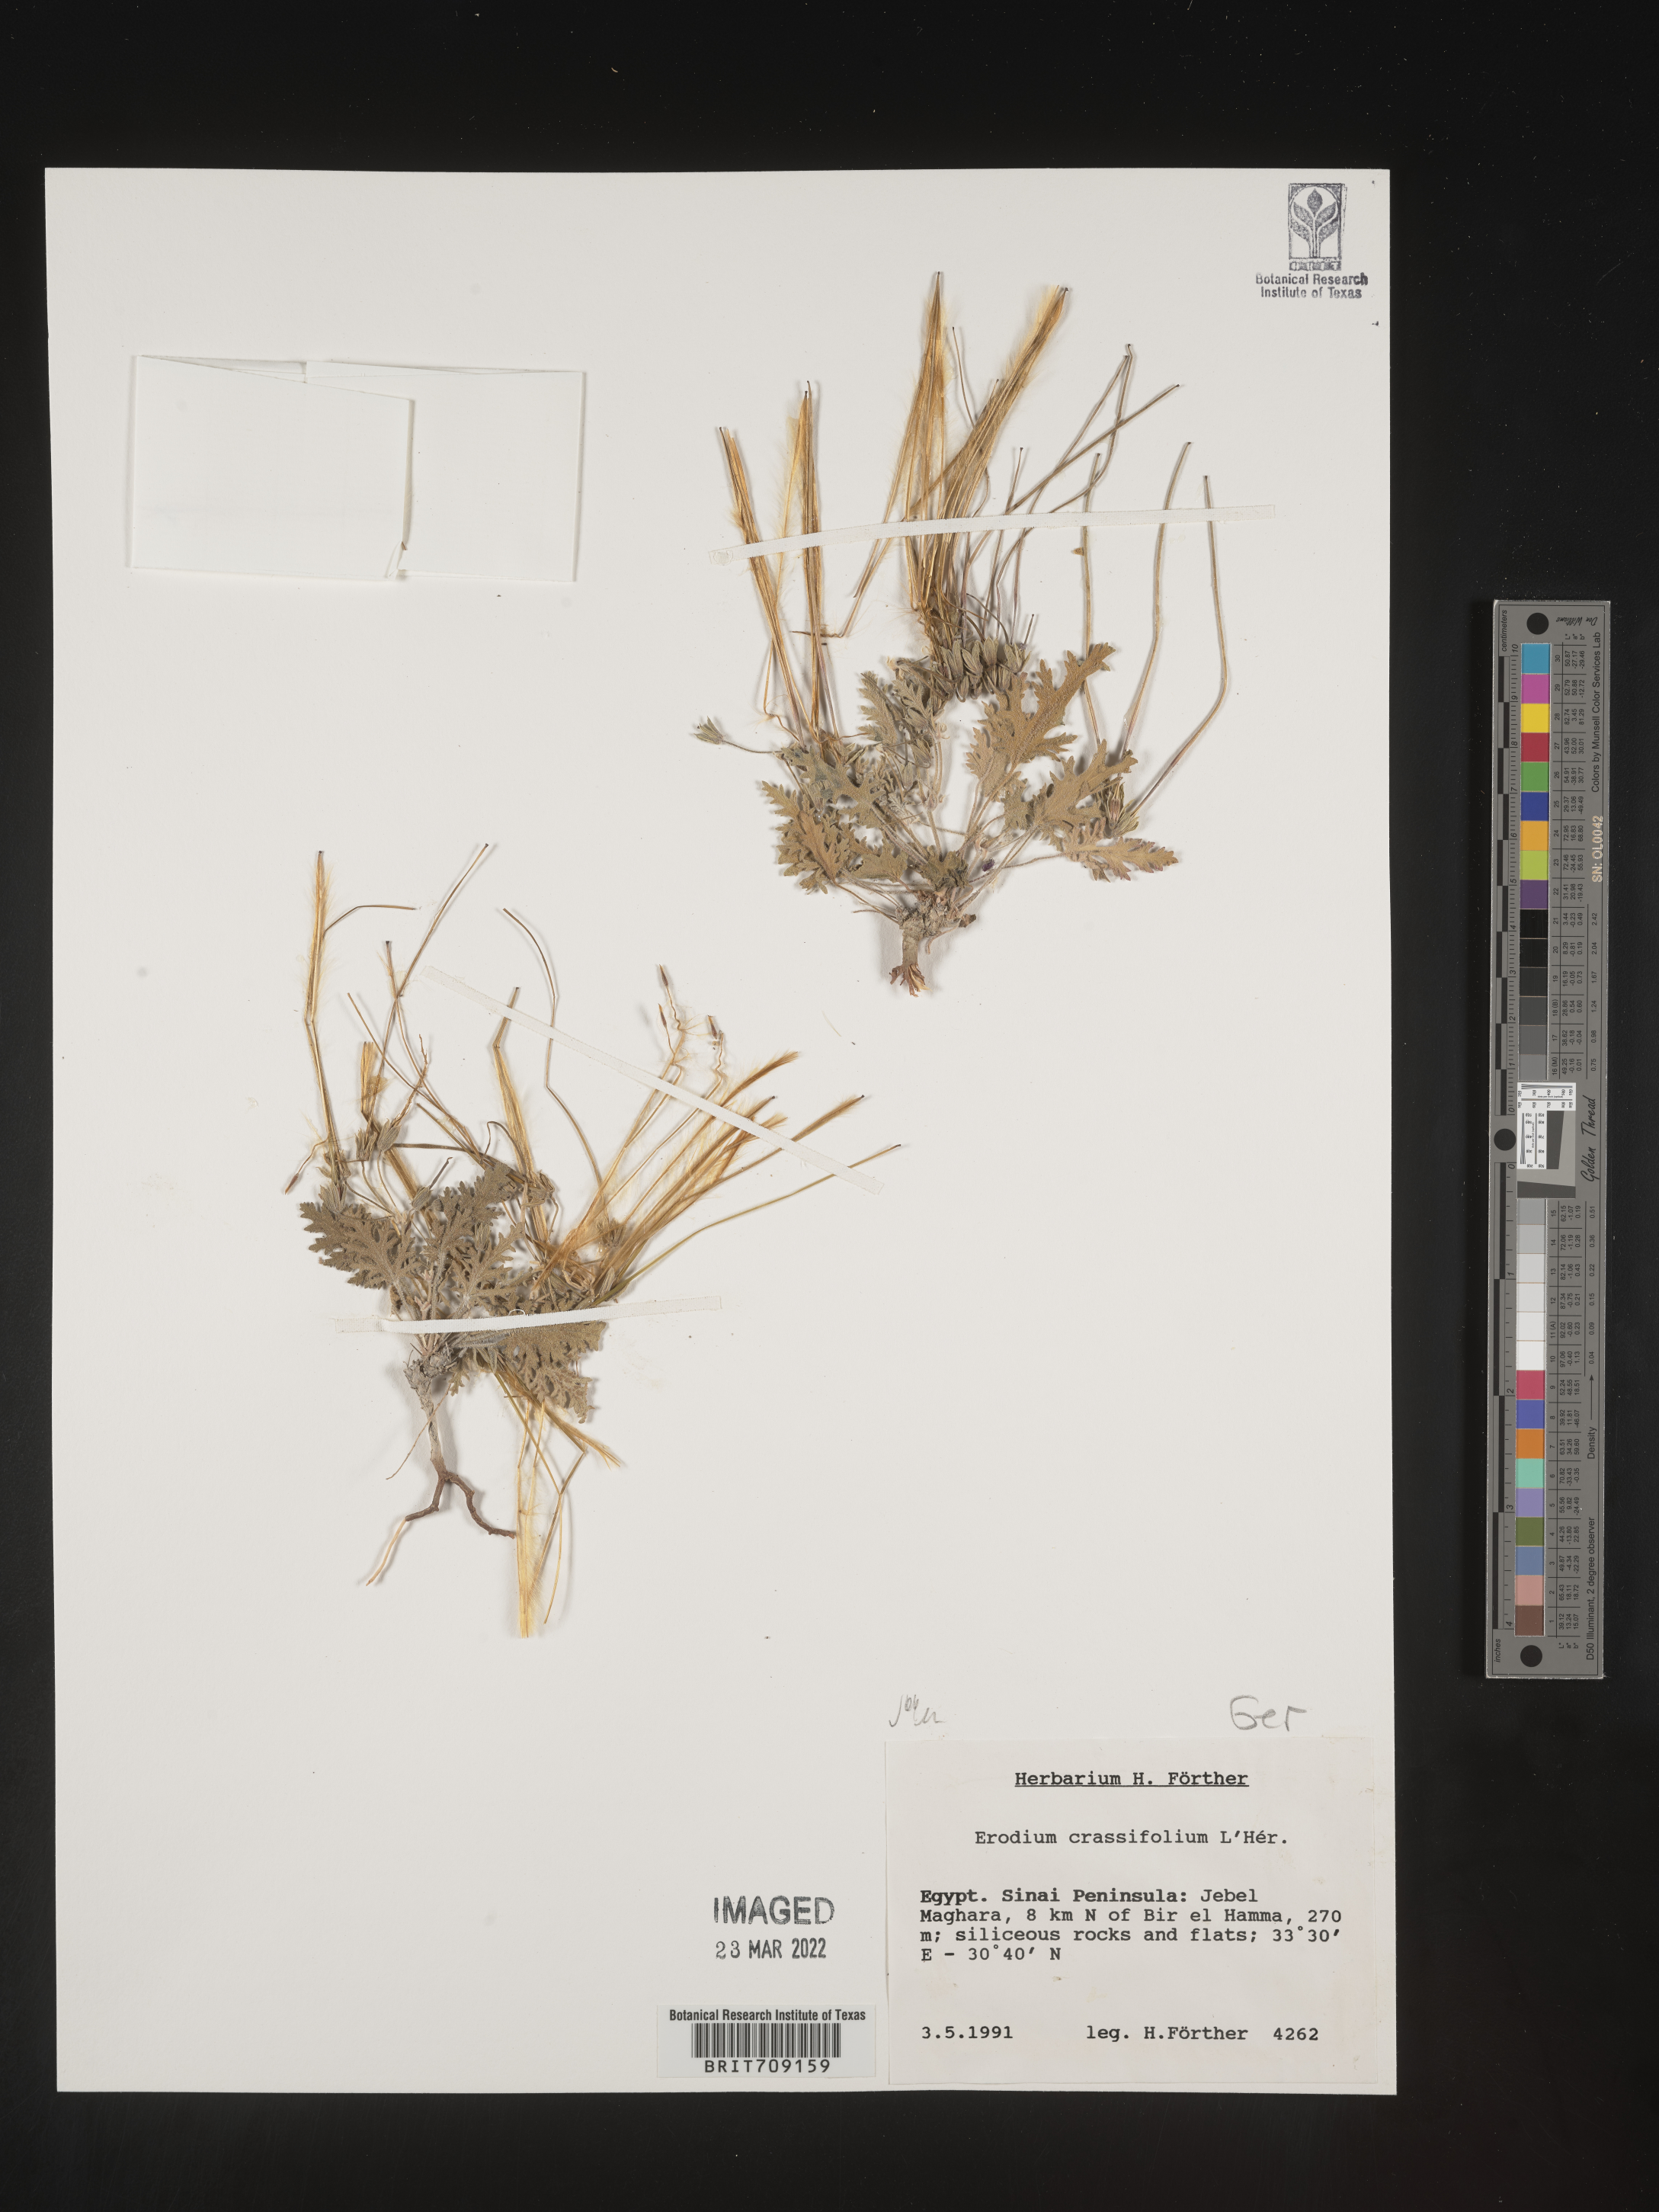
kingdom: Plantae
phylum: Tracheophyta
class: Magnoliopsida
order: Geraniales
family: Geraniaceae
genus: Erodium
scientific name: Erodium
